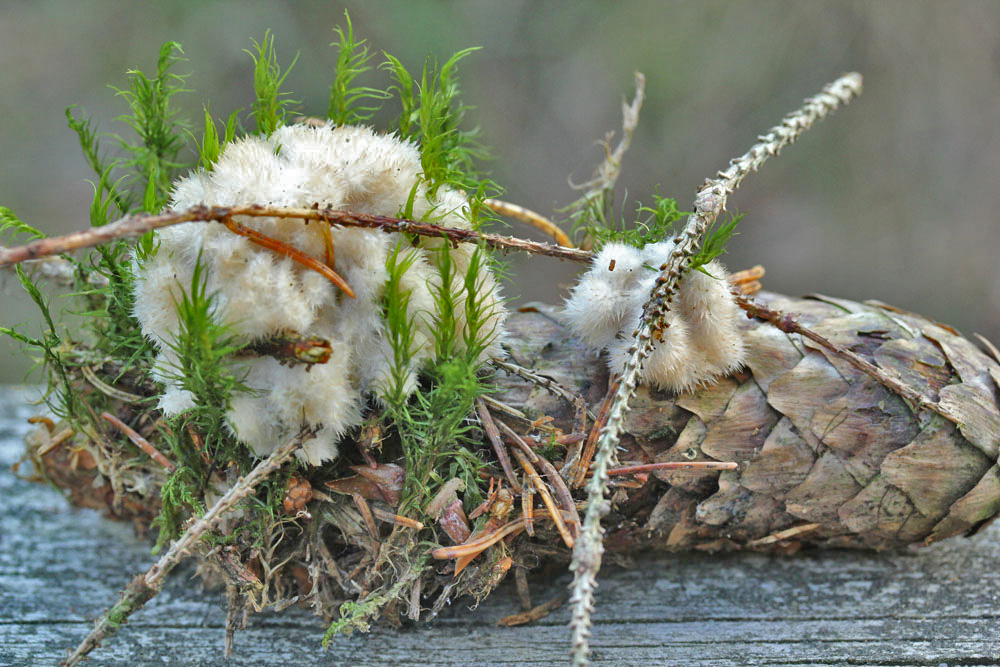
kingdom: Fungi
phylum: Basidiomycota
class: Agaricomycetes
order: Polyporales
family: Dacryobolaceae
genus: Postia
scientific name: Postia ptychogaster
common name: støvende kødporesvamp
